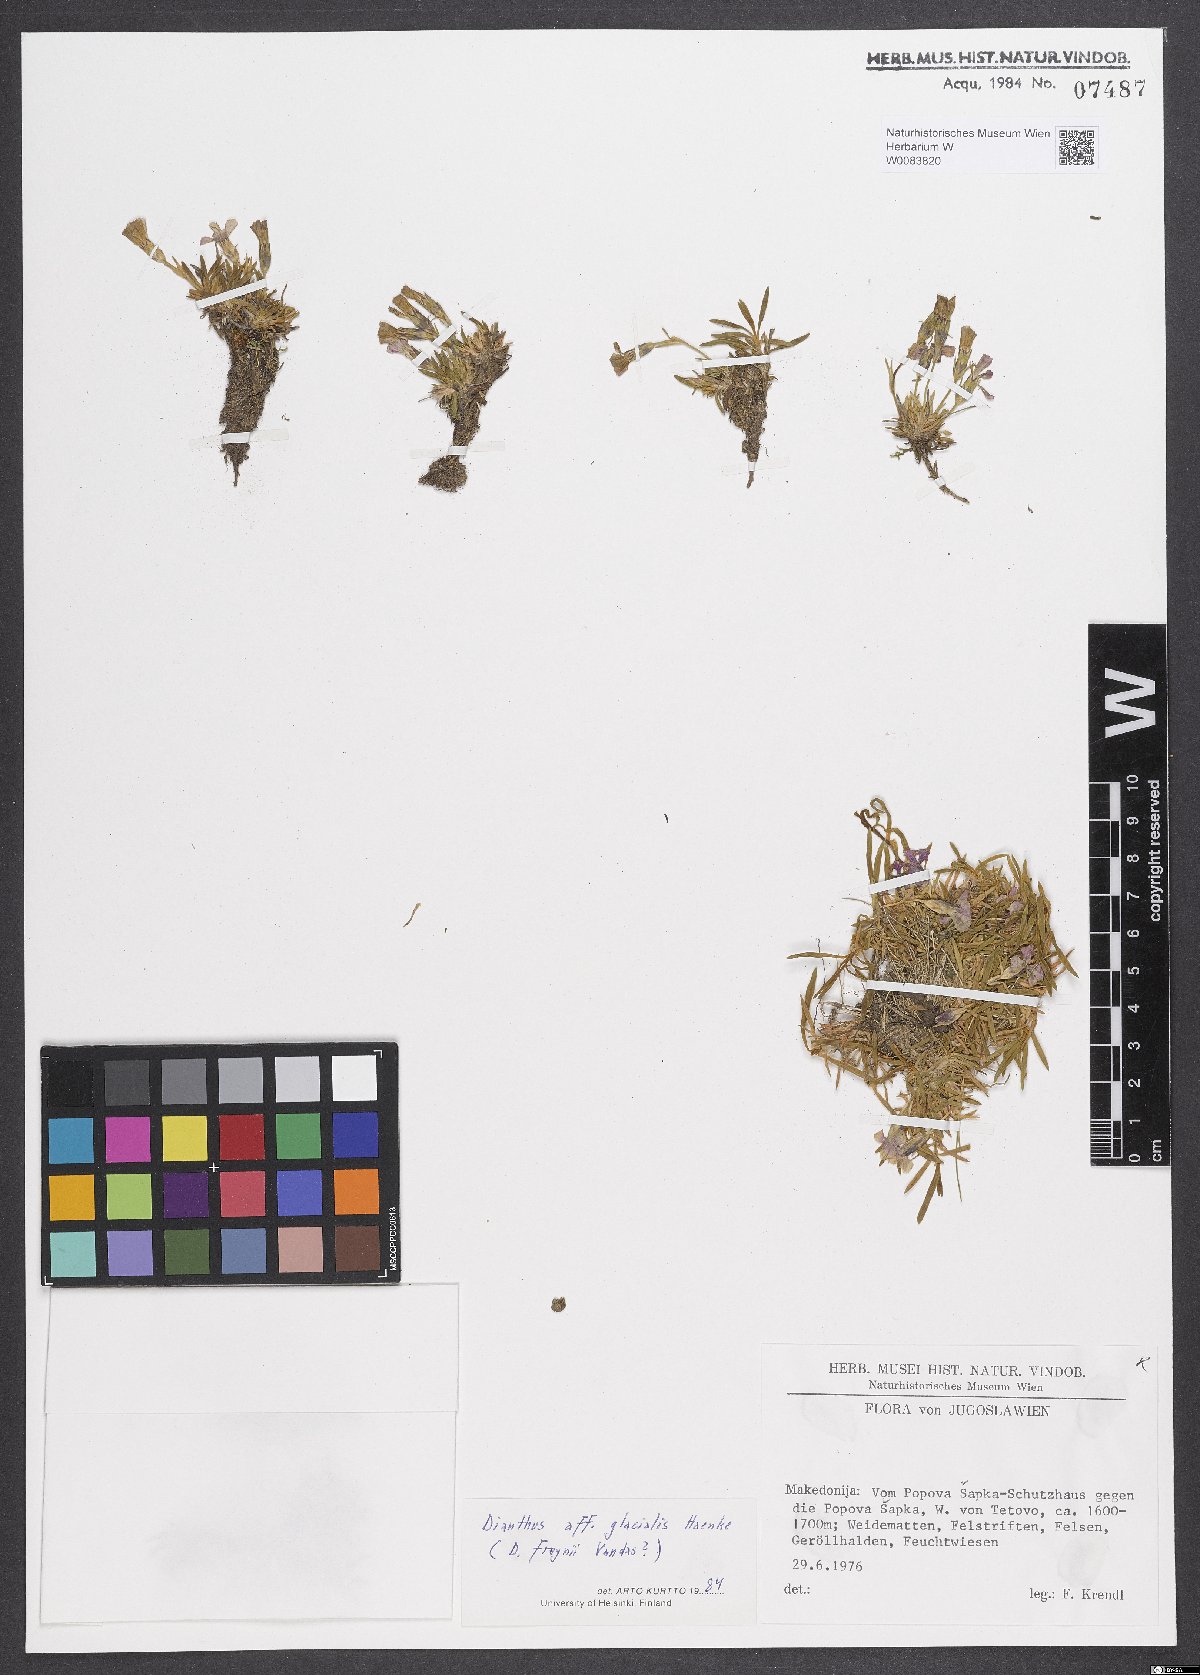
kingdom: Plantae
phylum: Tracheophyta
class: Magnoliopsida
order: Caryophyllales
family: Caryophyllaceae
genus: Dianthus
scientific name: Dianthus glacialis
